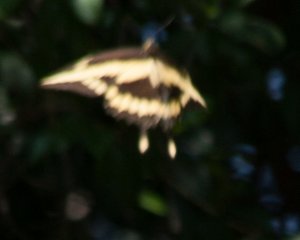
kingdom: Animalia
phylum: Arthropoda
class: Insecta
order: Lepidoptera
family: Papilionidae
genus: Papilio
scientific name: Papilio rumiko
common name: Western Giant Swallowtail
